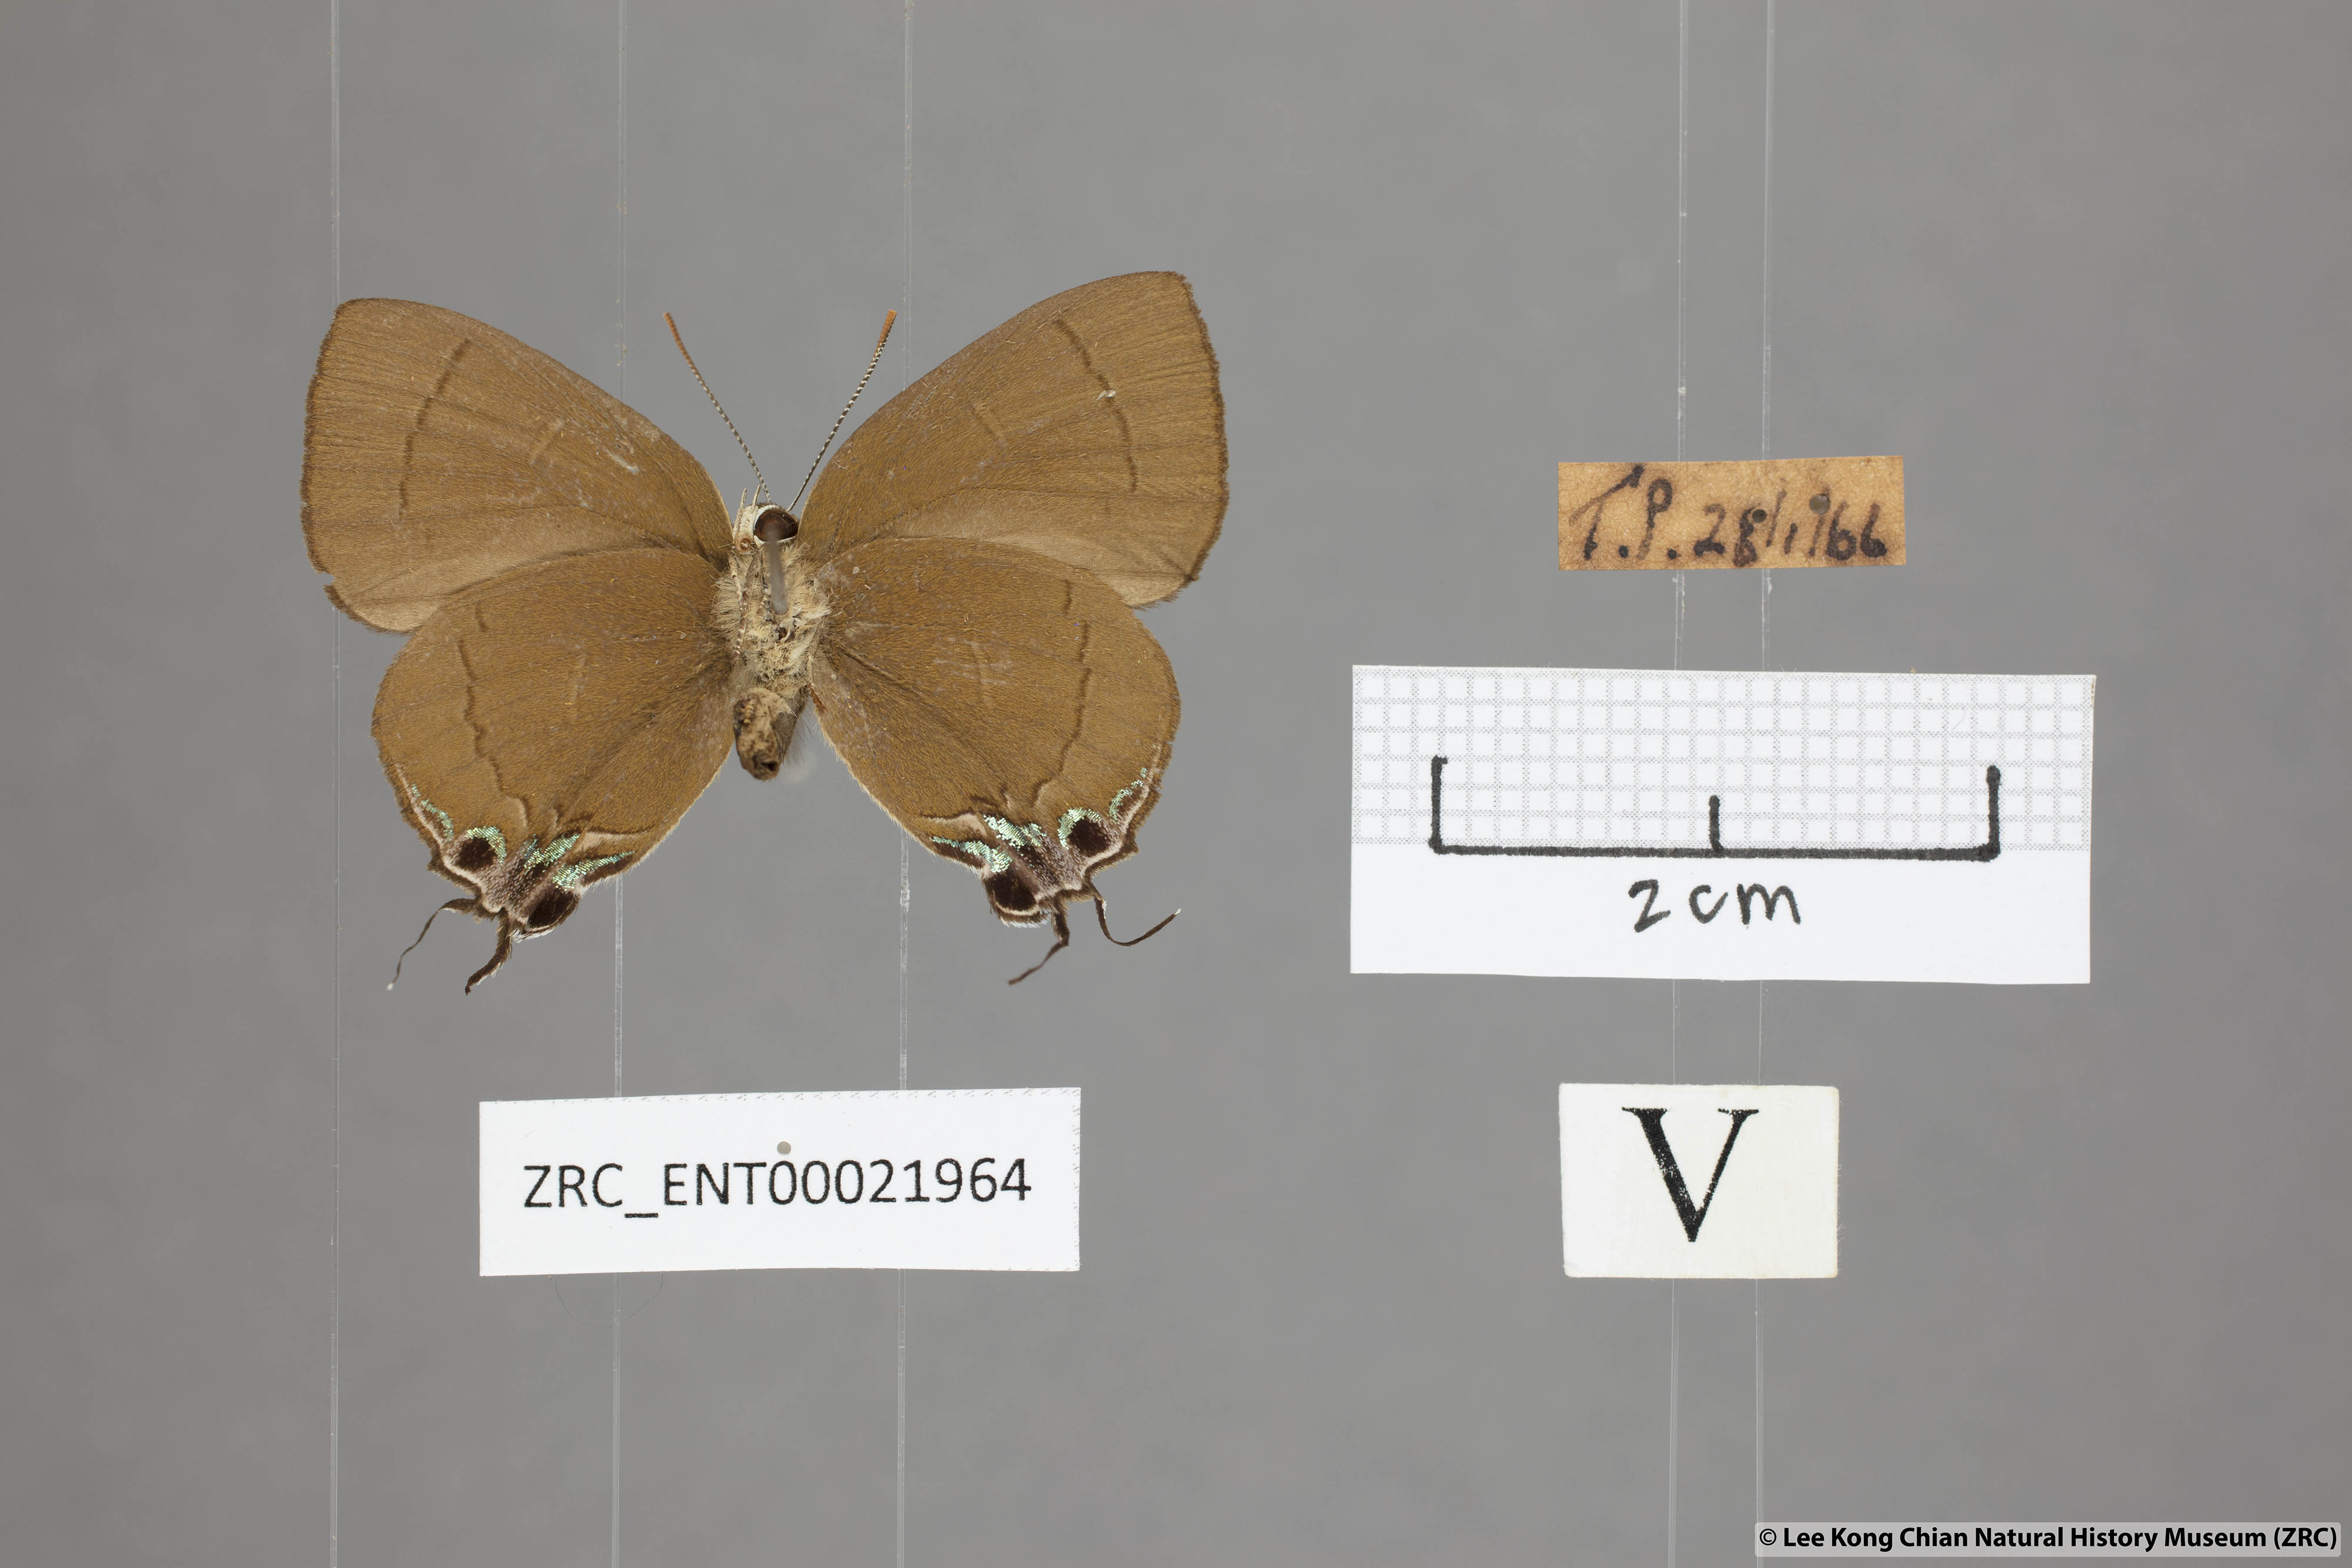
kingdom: Animalia
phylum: Arthropoda
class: Insecta
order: Lepidoptera
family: Lycaenidae
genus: Remelana
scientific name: Remelana jangala
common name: Chocolate royal
